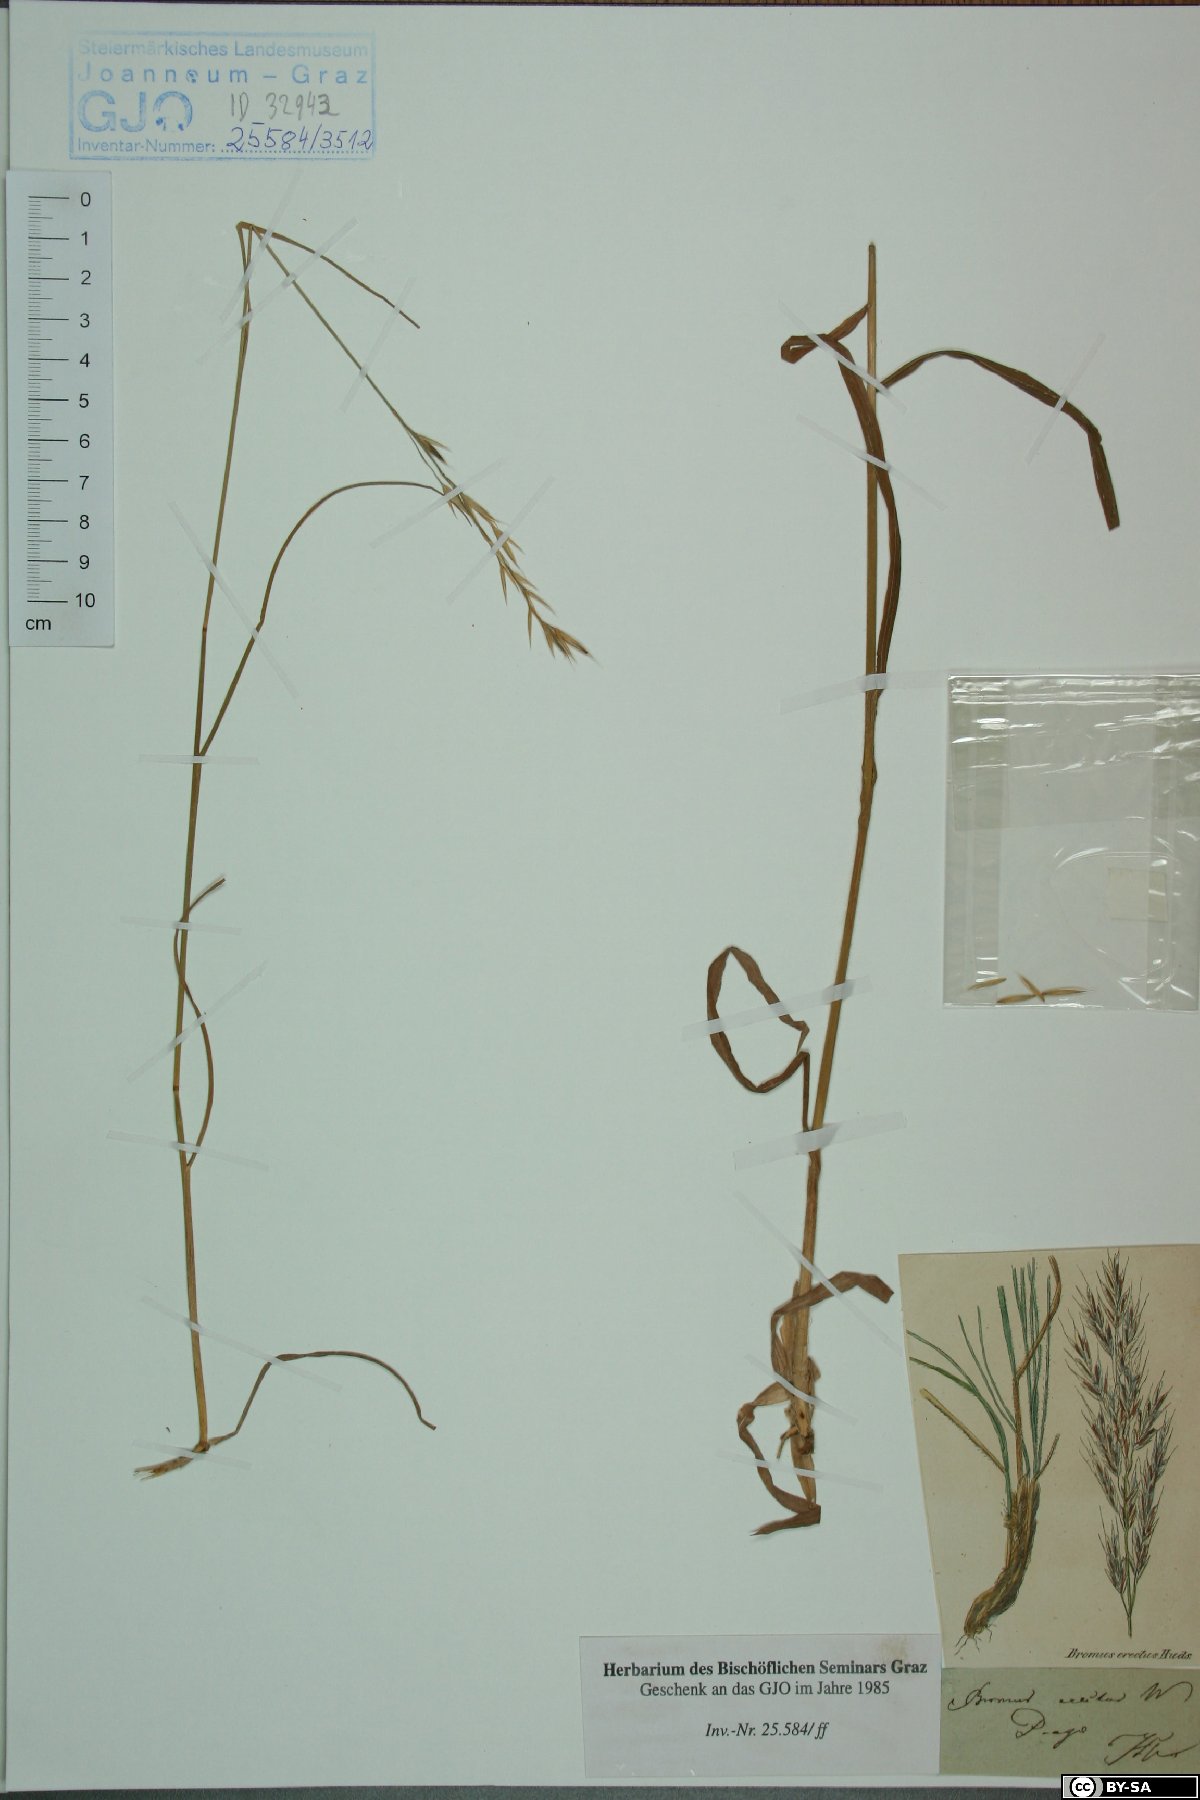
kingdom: Plantae
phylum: Tracheophyta
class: Liliopsida
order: Poales
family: Poaceae
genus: Bromus
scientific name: Bromus erectus
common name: Erect brome
